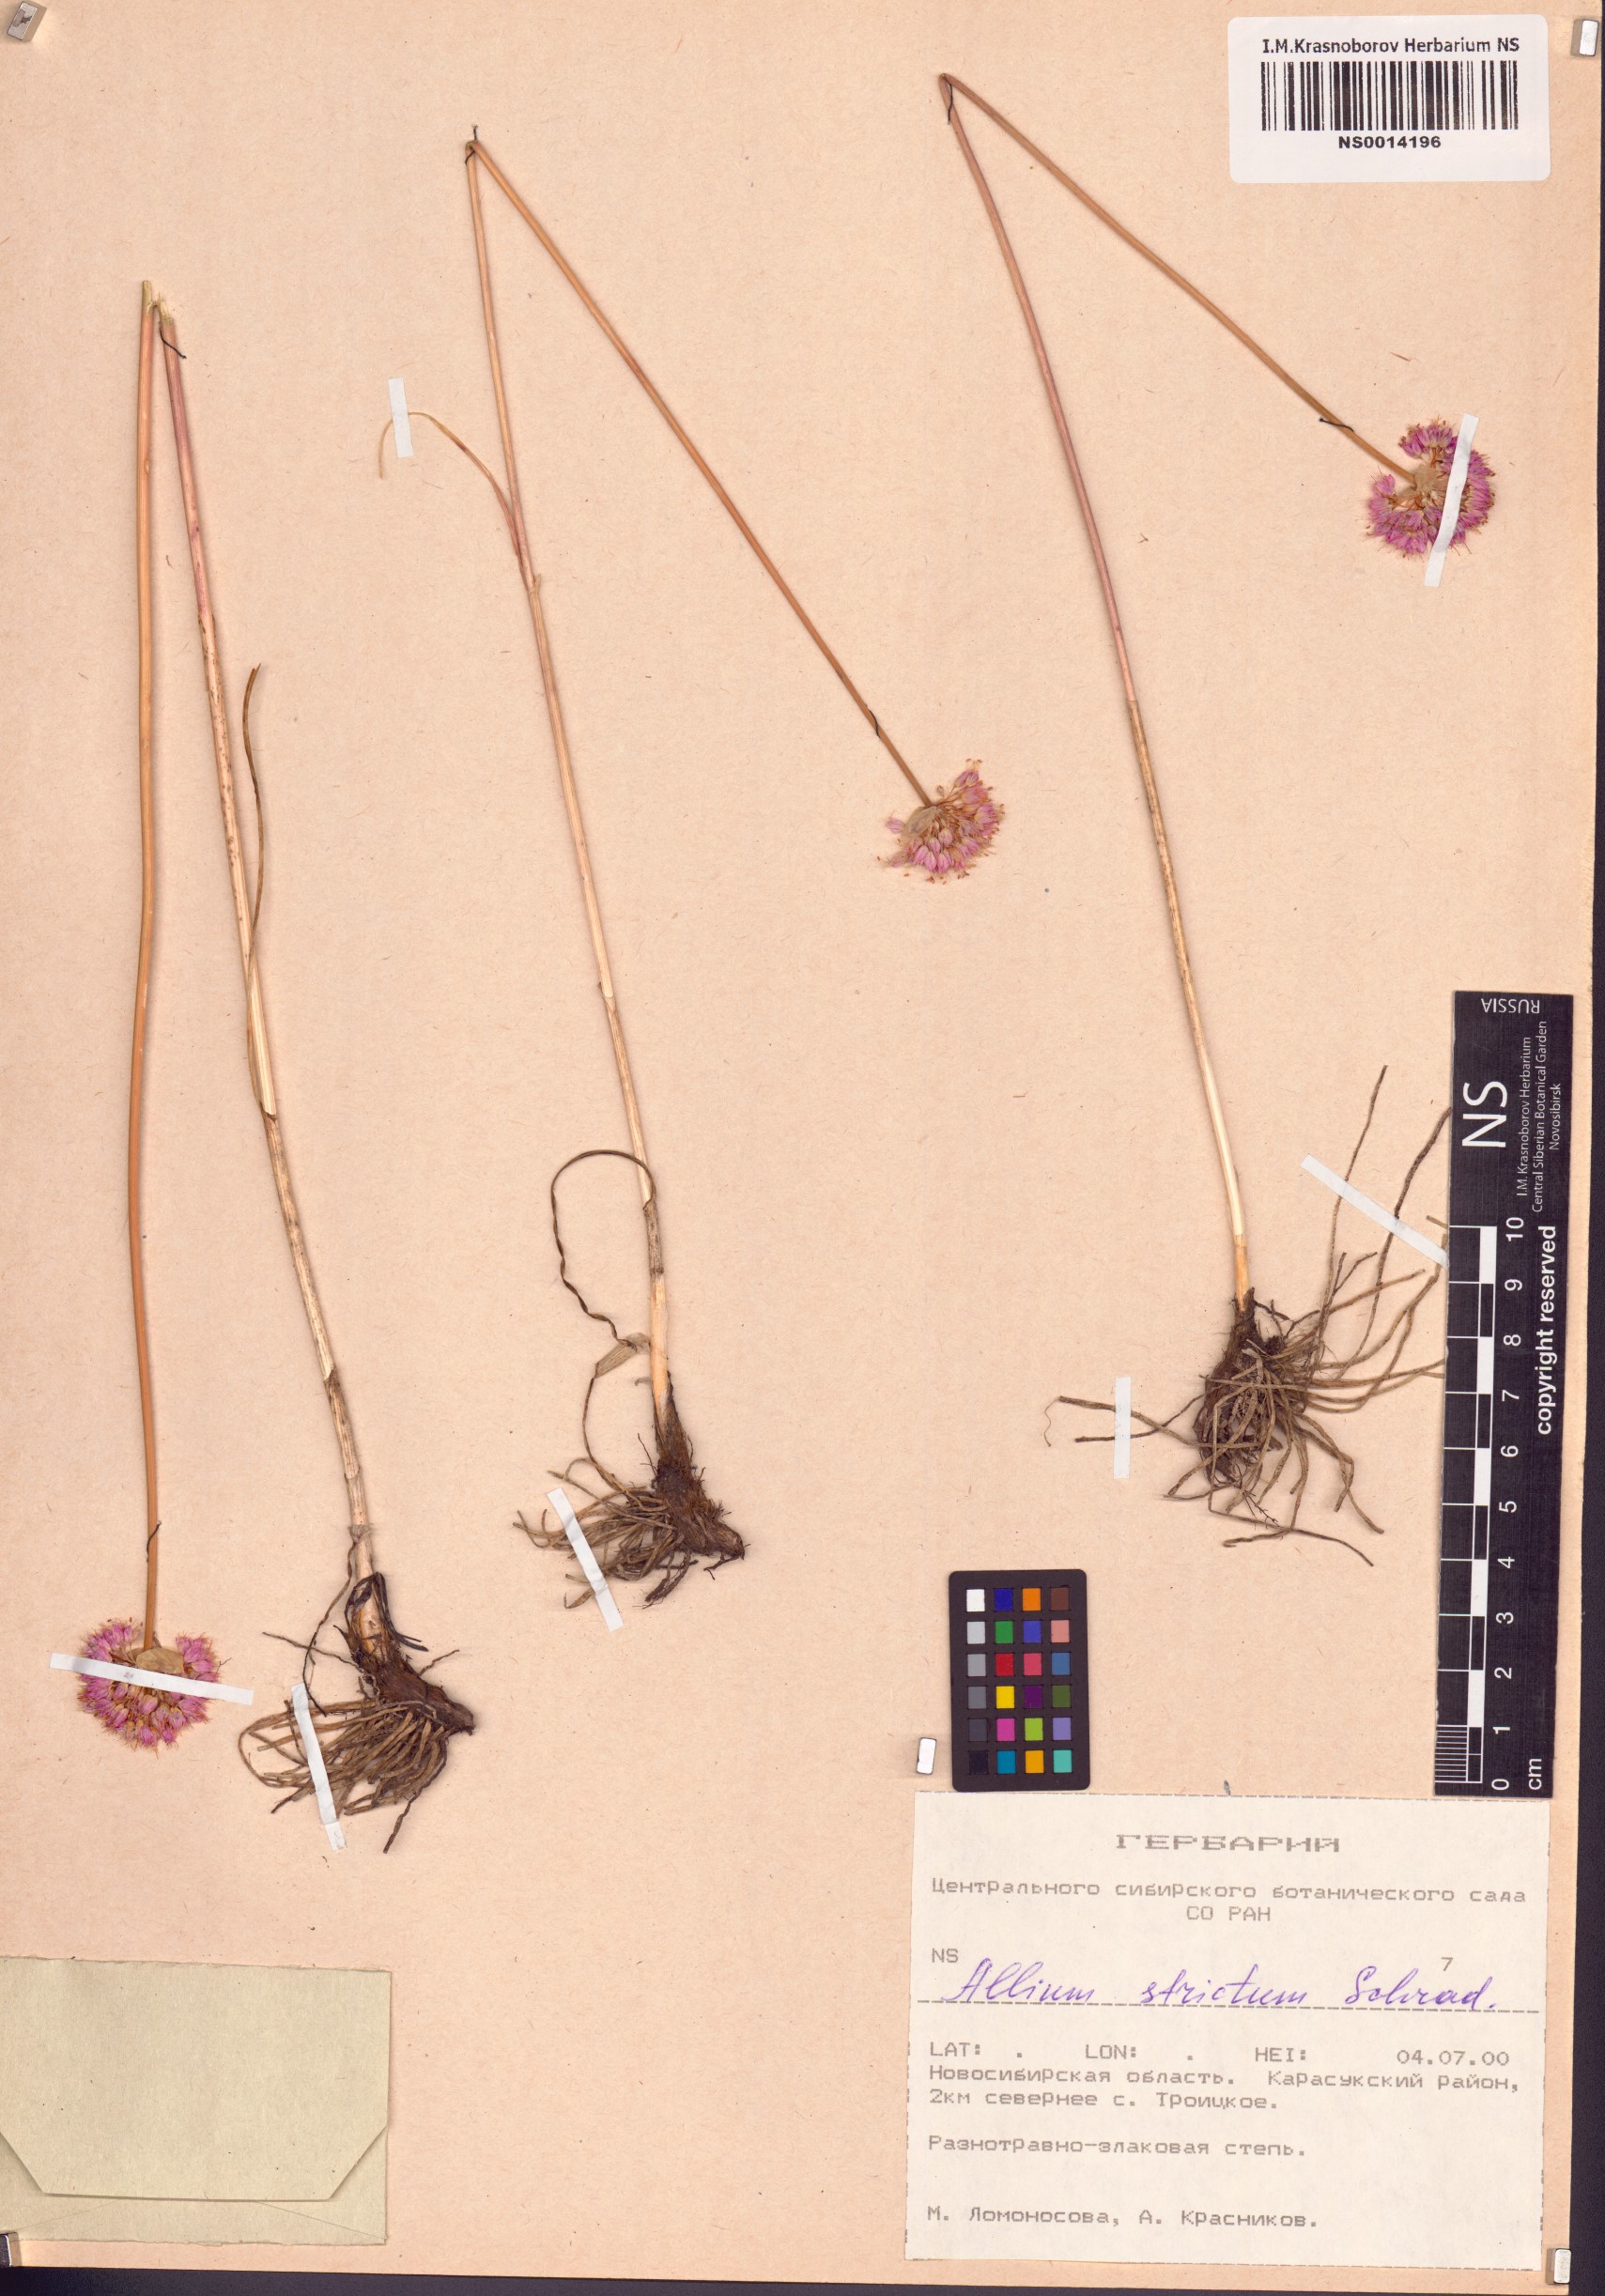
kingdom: Plantae
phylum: Tracheophyta
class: Liliopsida
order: Asparagales
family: Amaryllidaceae
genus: Allium
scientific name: Allium strictum
